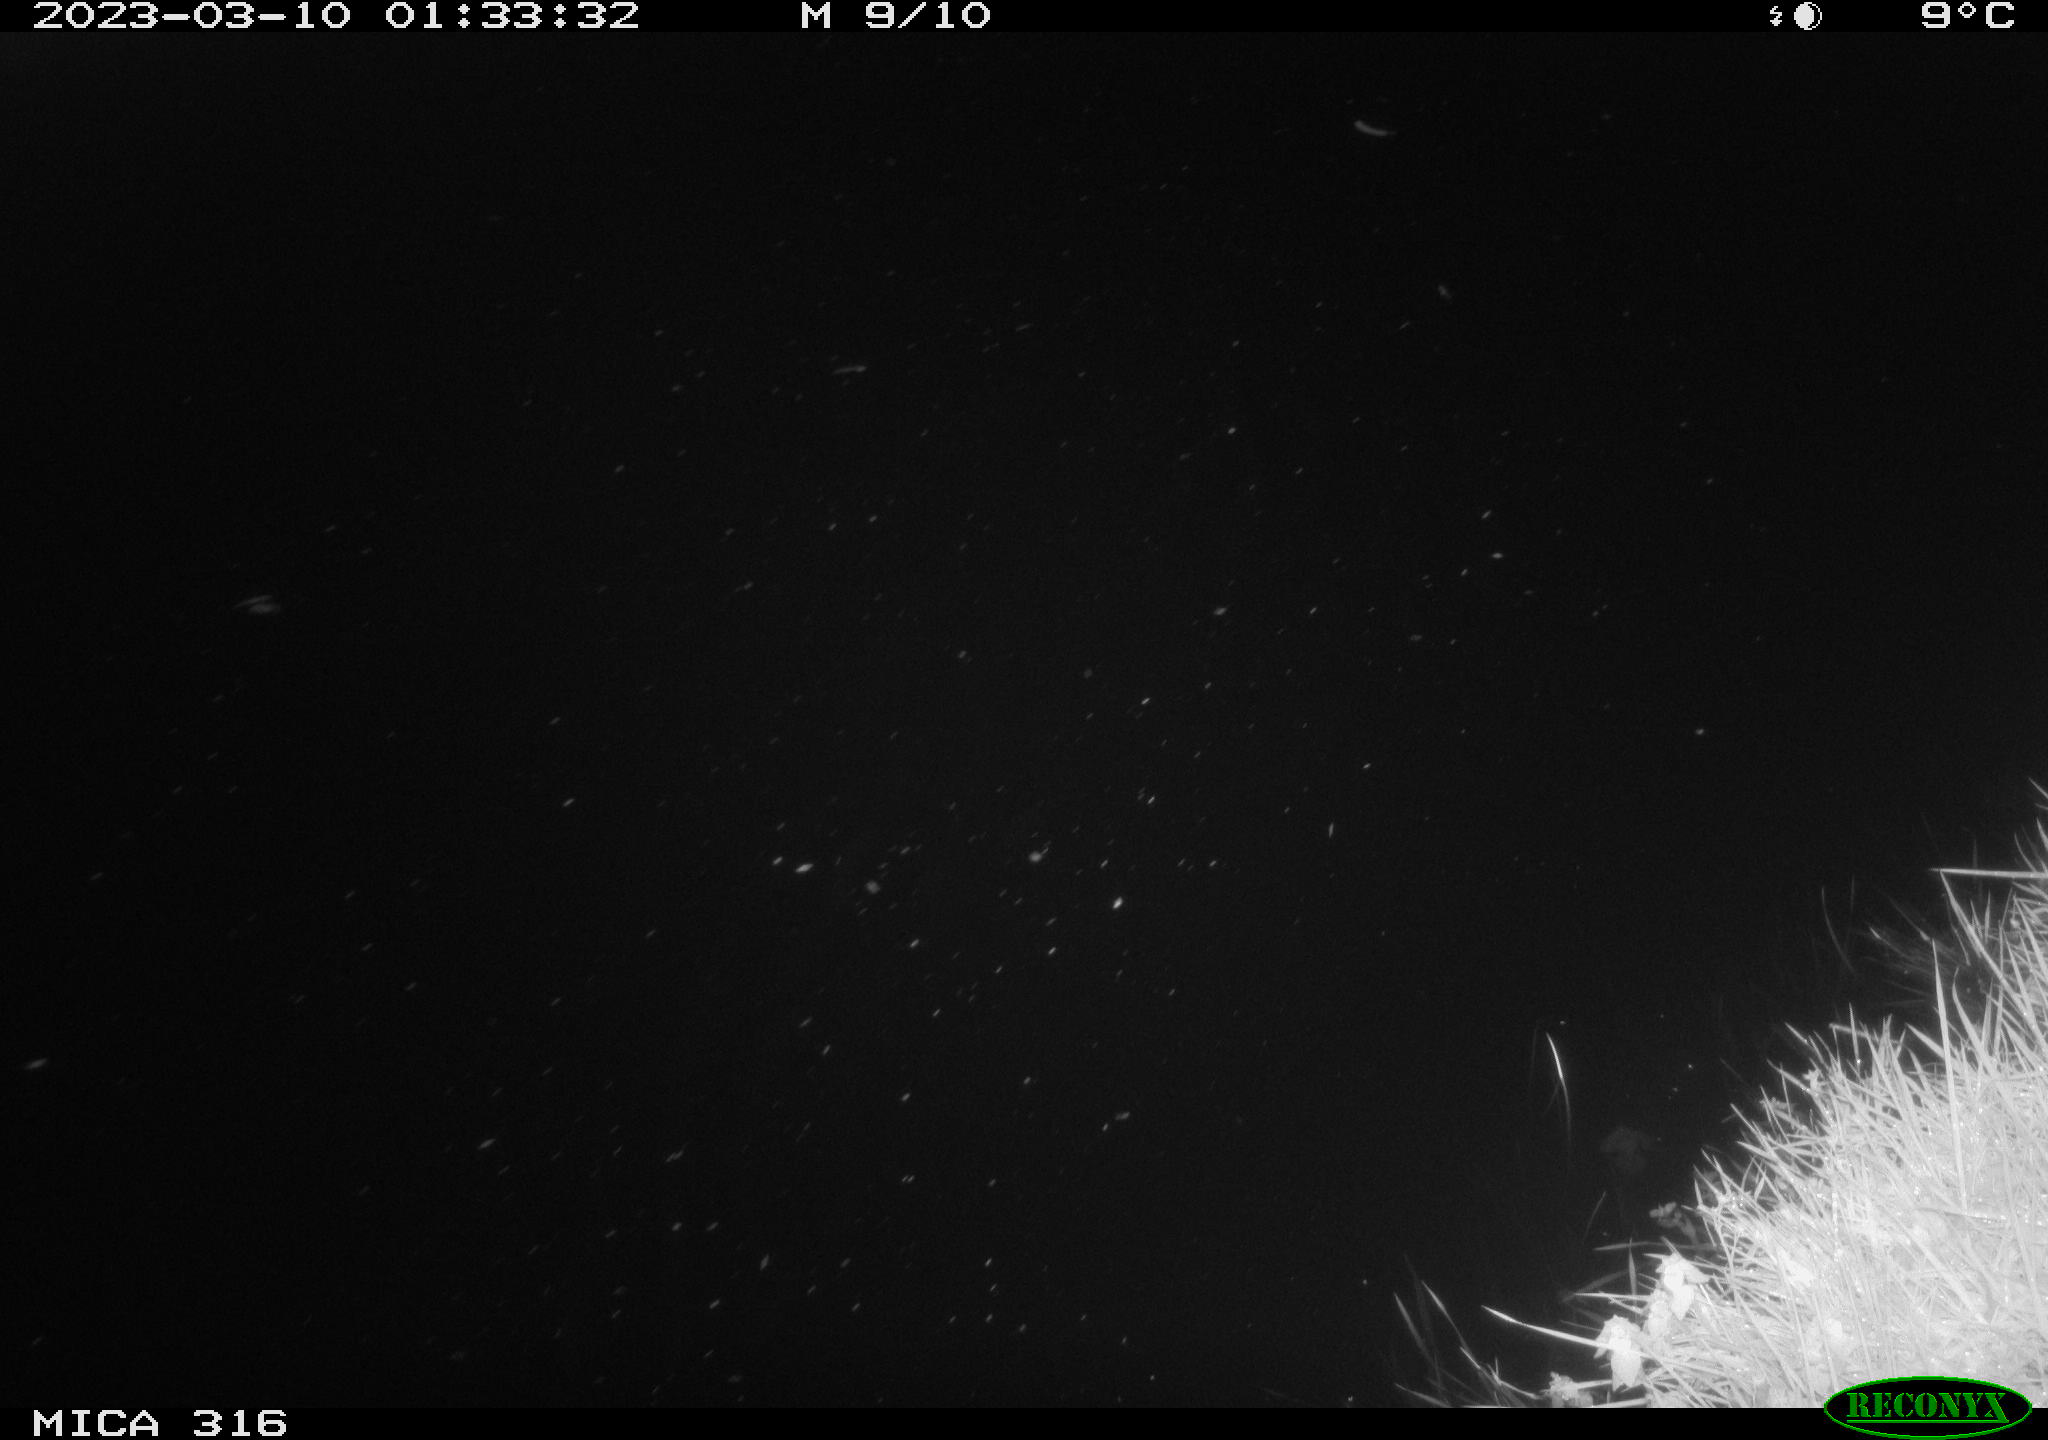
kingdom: Animalia
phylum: Chordata
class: Mammalia
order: Rodentia
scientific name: Rodentia
